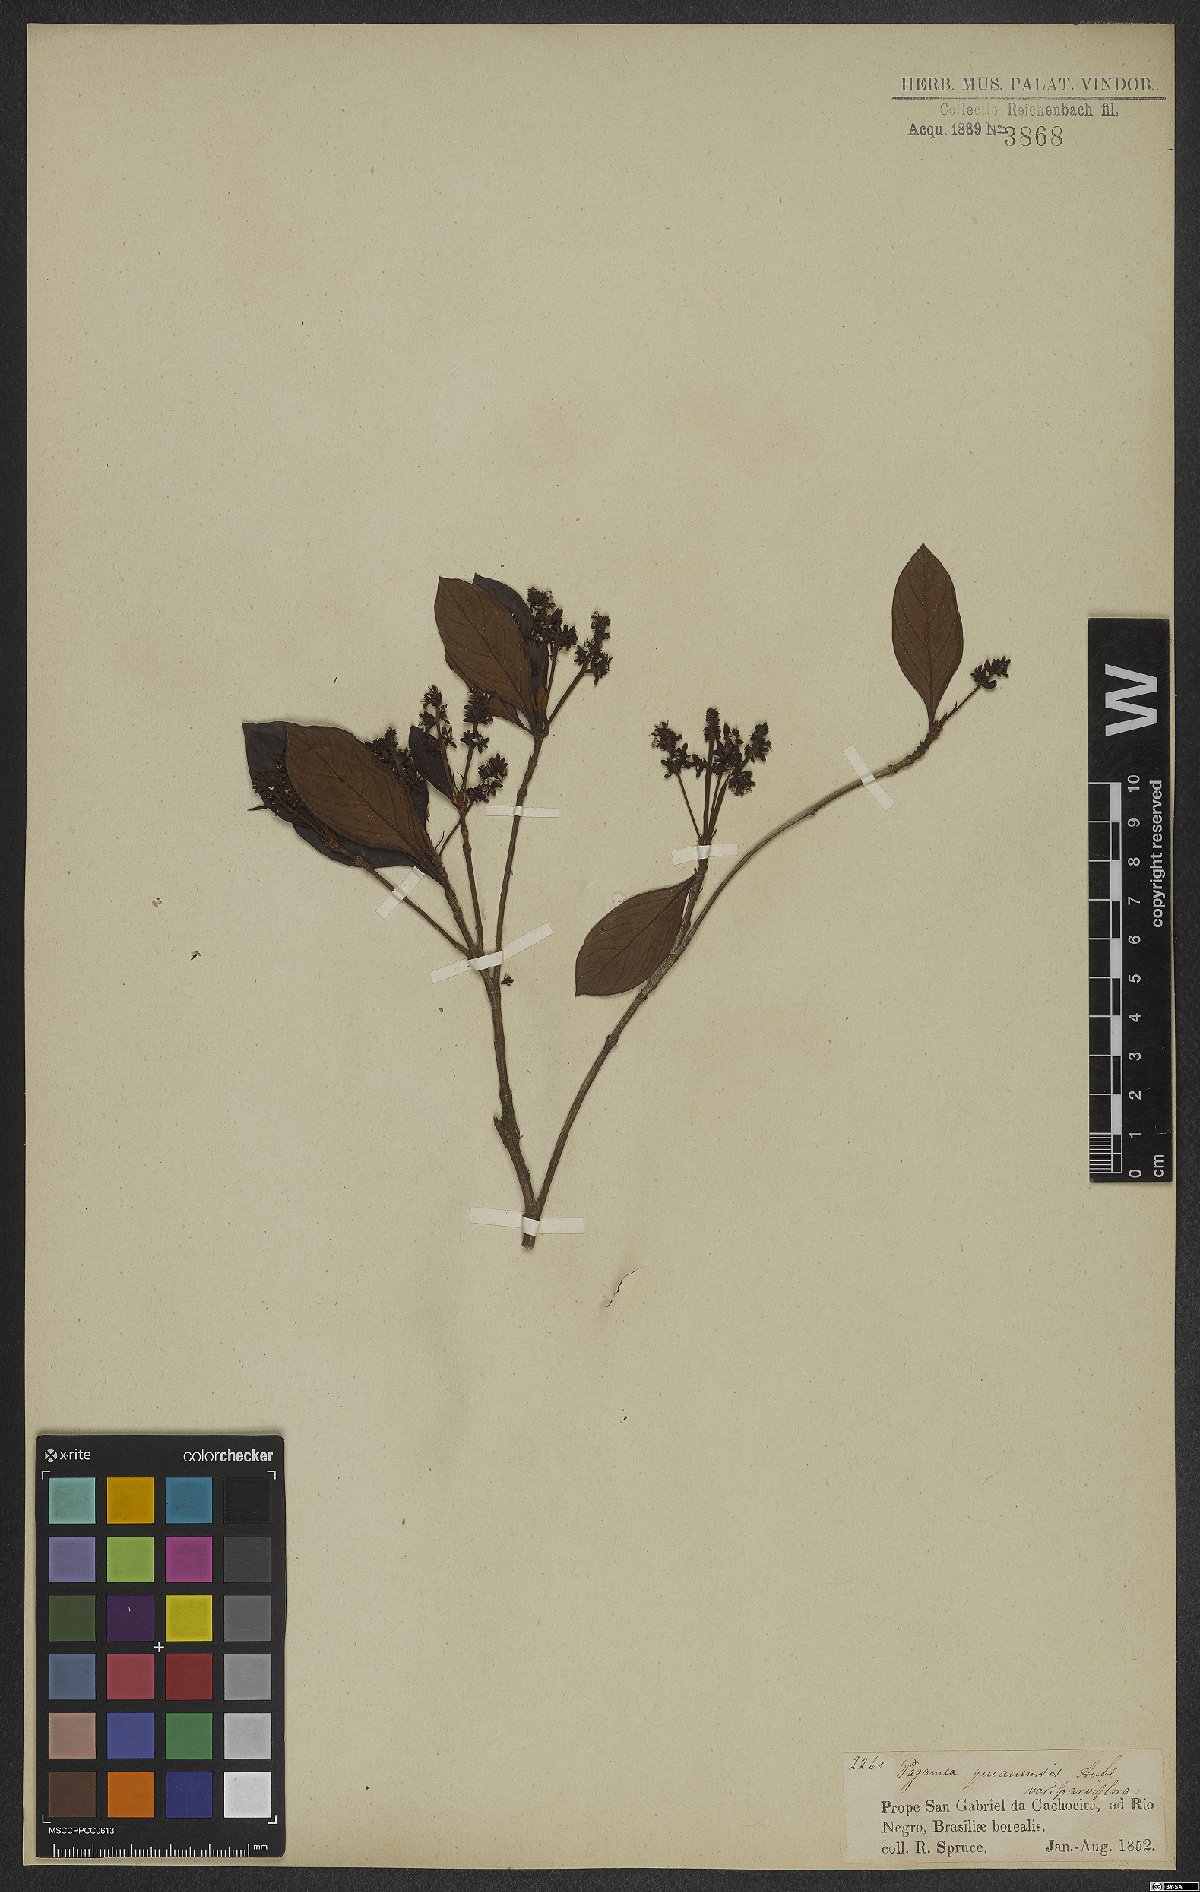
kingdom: Plantae
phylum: Tracheophyta
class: Magnoliopsida
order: Gentianales
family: Rubiaceae
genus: Pagamea
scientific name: Pagamea guianensis
